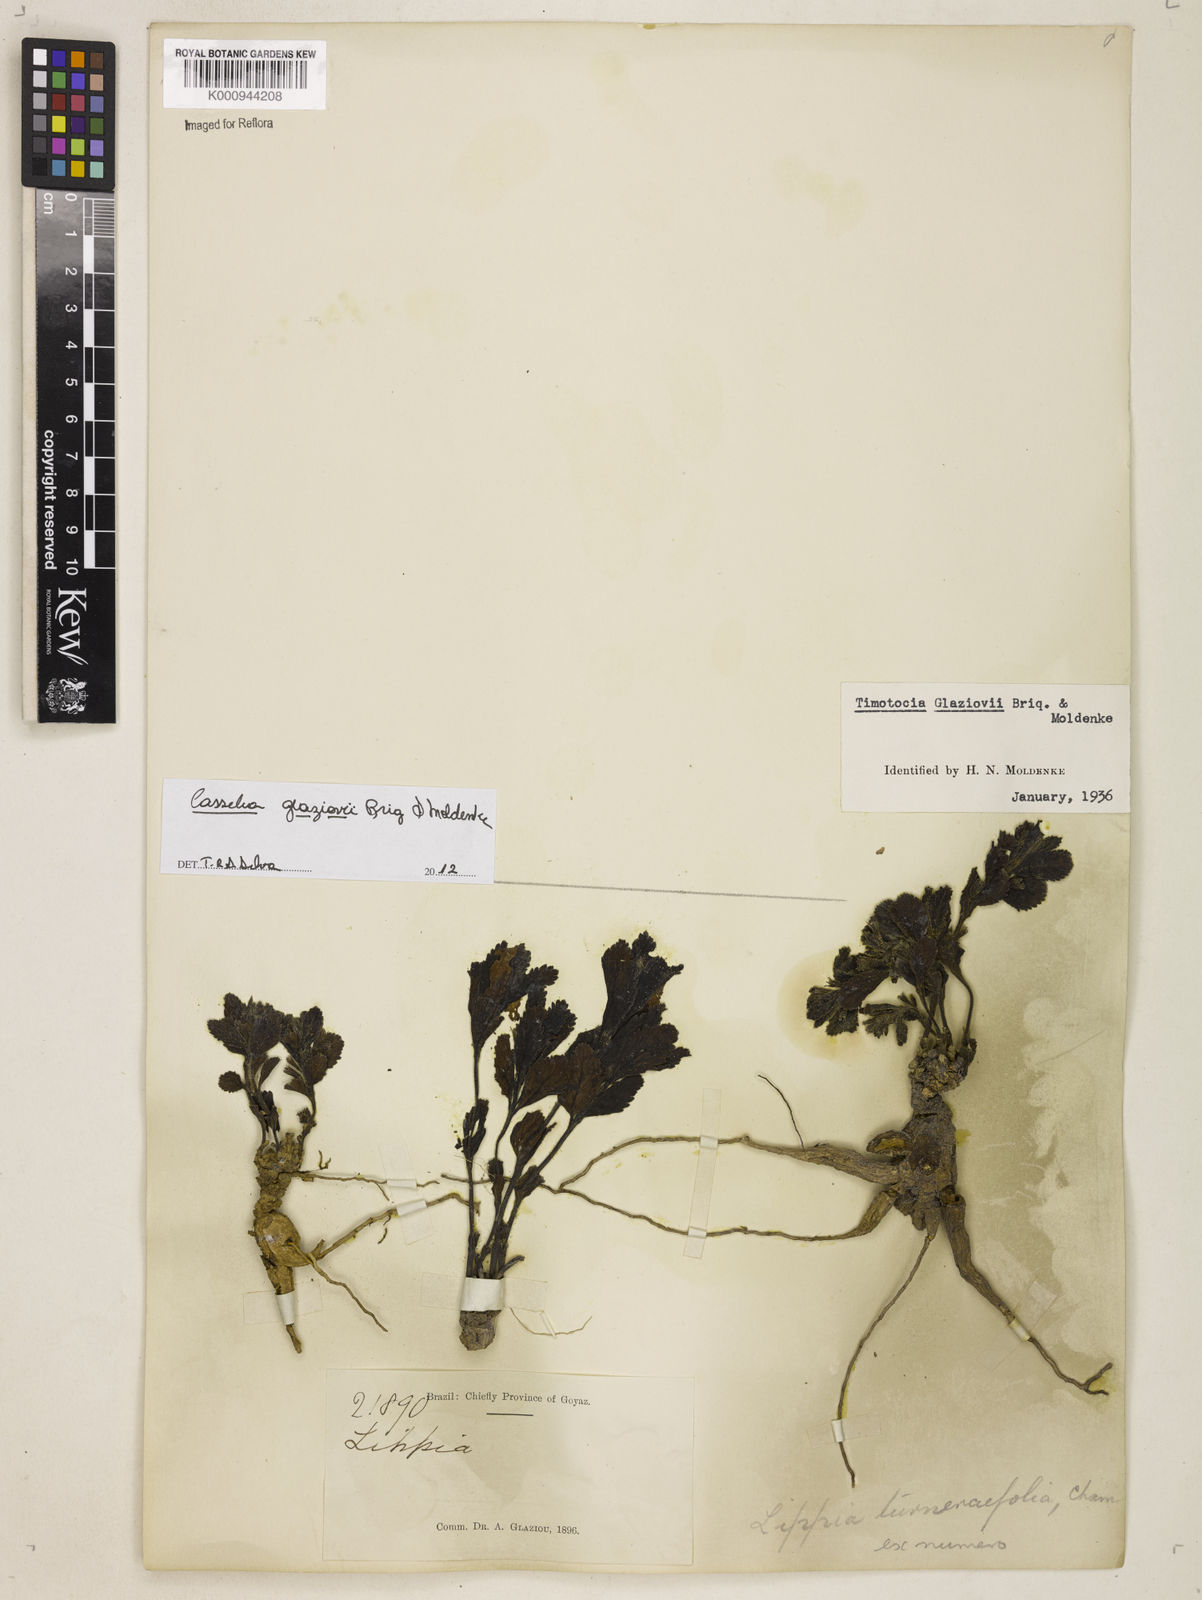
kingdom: Plantae
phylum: Tracheophyta
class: Magnoliopsida
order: Lamiales
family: Verbenaceae
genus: Casselia
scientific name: Casselia glaziovii
